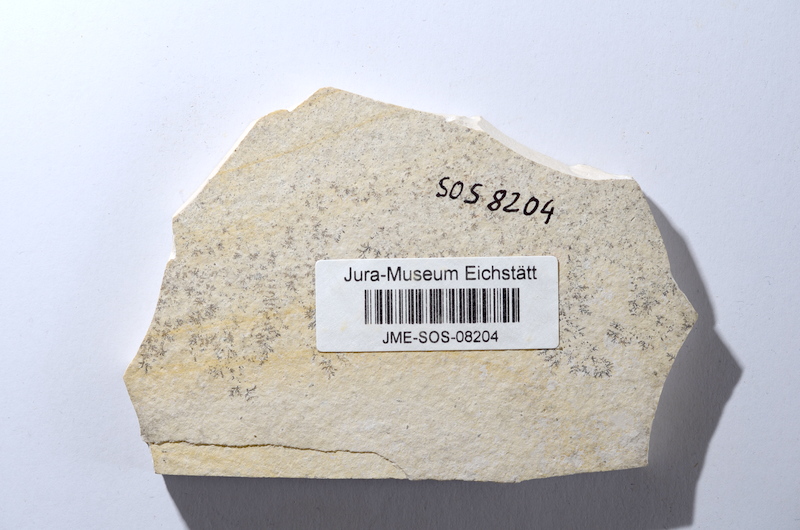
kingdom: Animalia
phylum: Chordata
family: Ascalaboidae
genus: Tharsis
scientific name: Tharsis dubius
